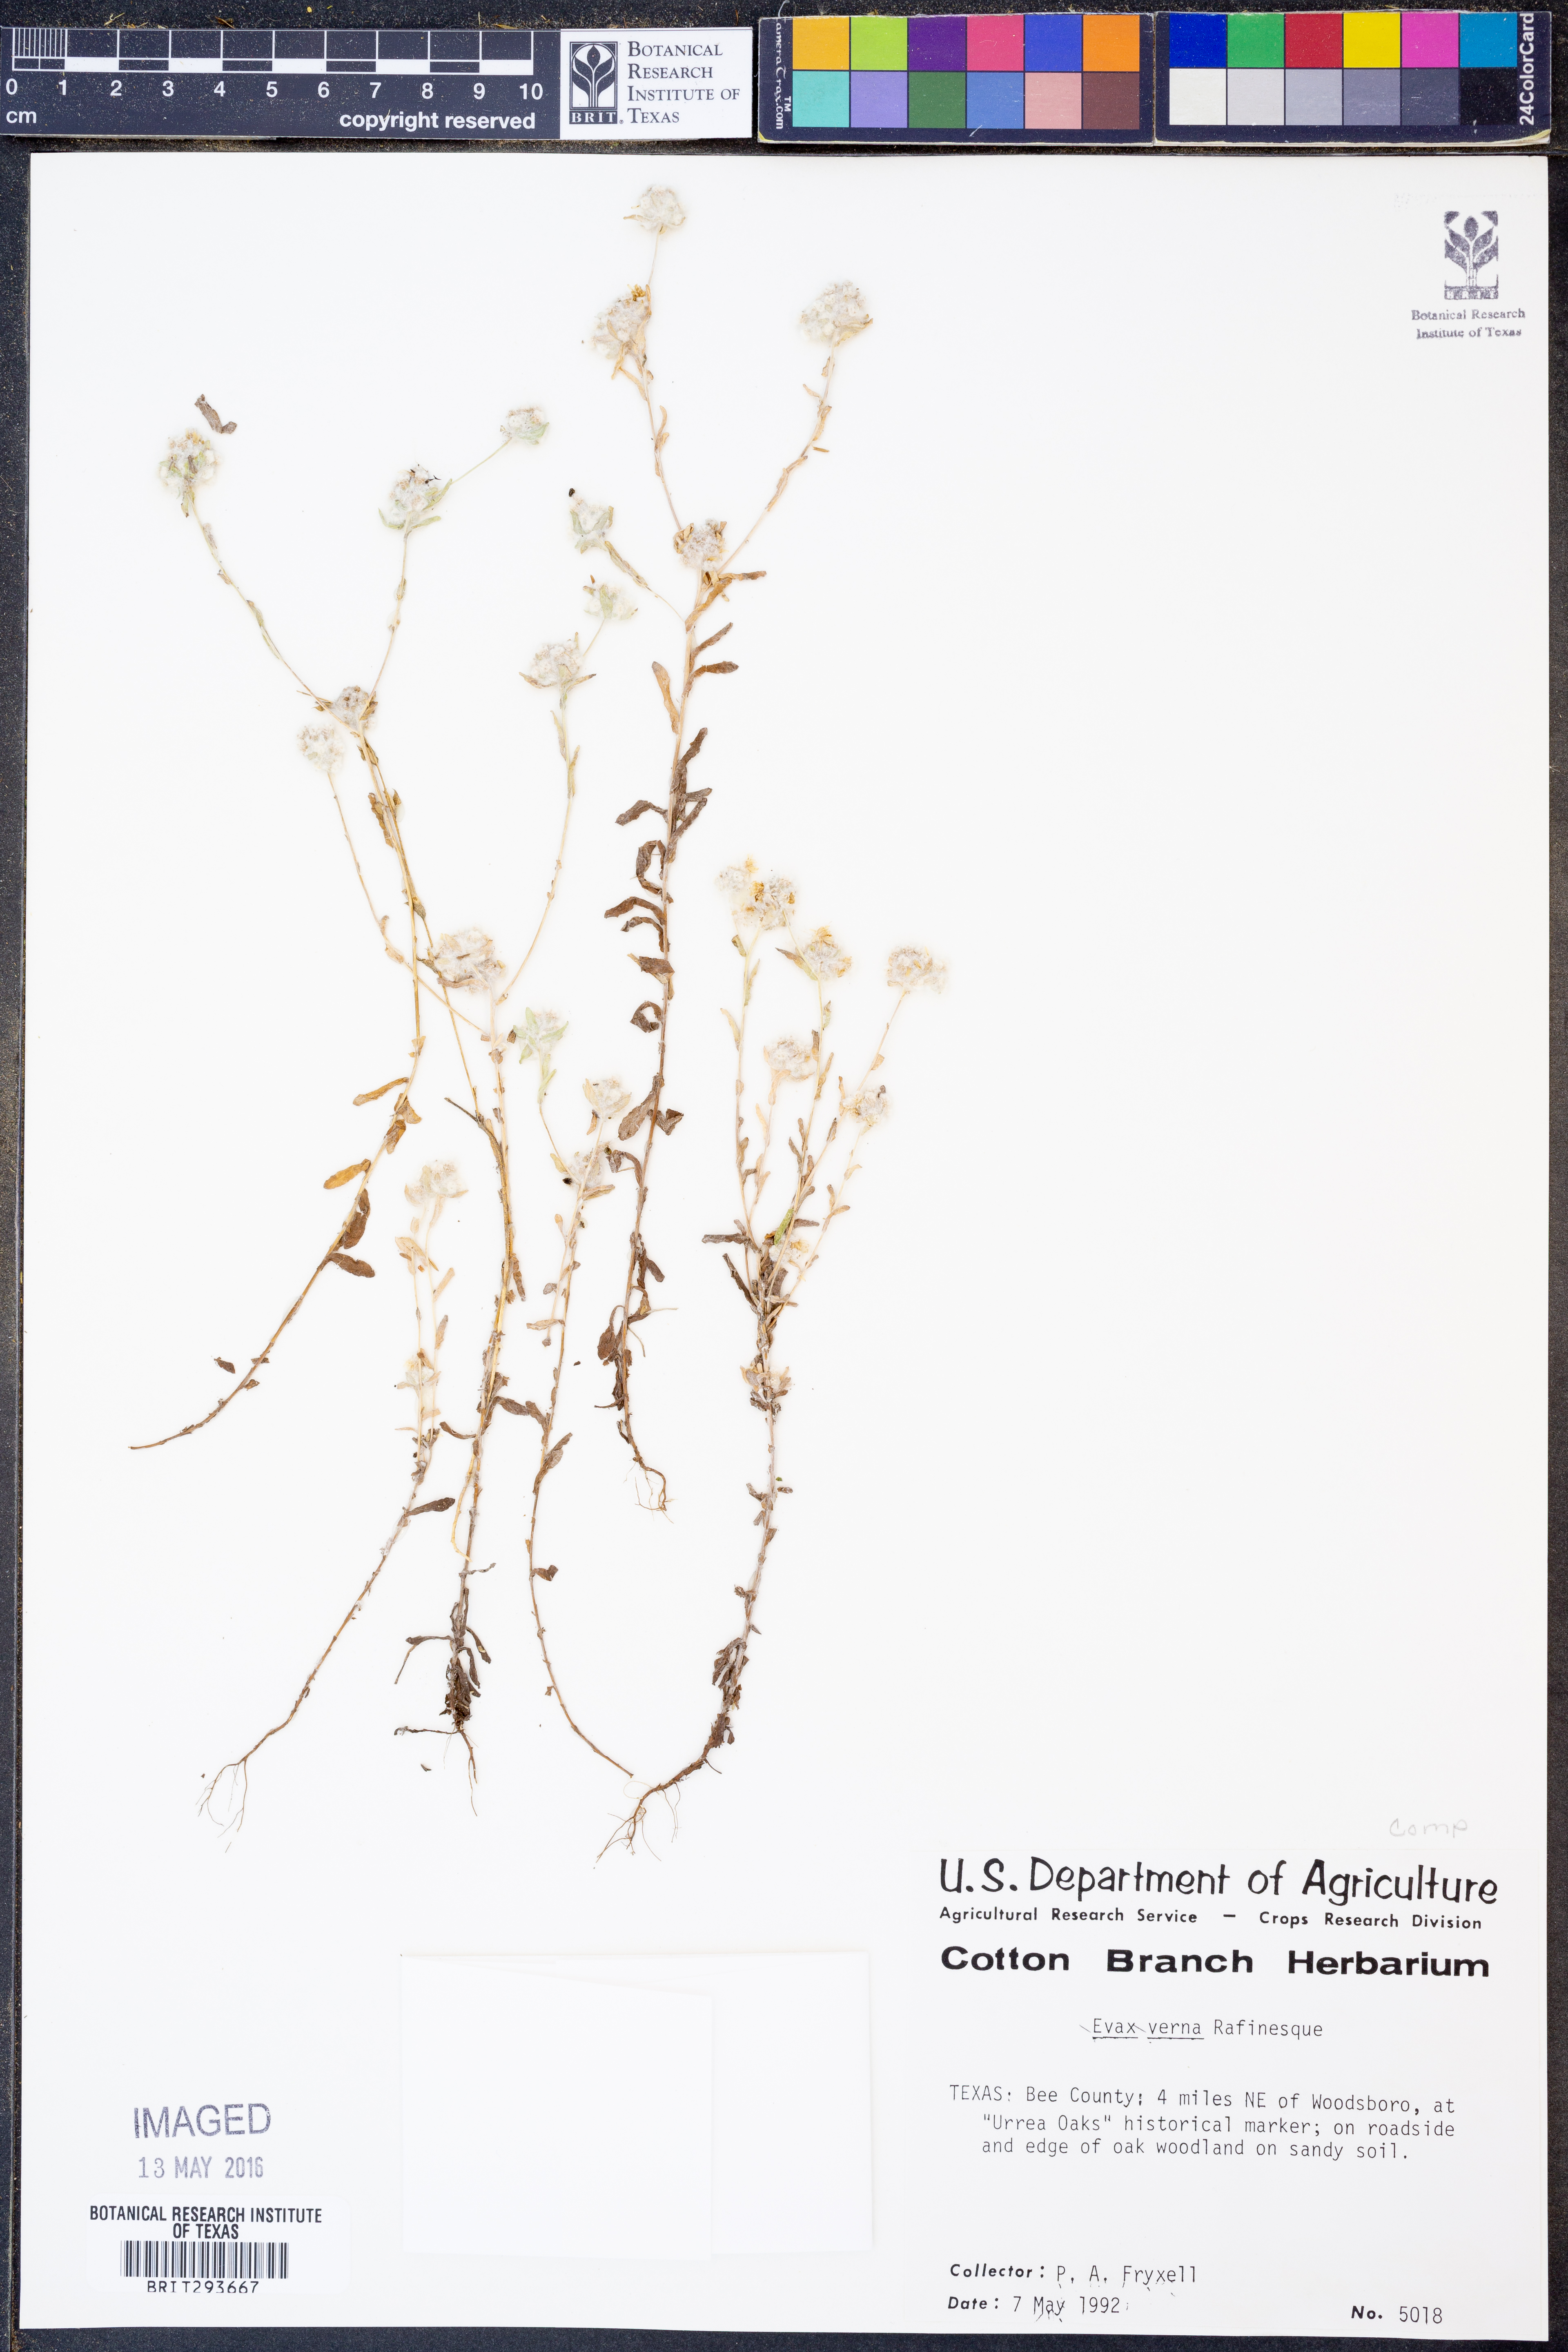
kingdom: Plantae
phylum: Tracheophyta
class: Magnoliopsida
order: Asterales
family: Asteraceae
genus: Diaperia
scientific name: Diaperia verna
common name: Many-stem rabbit-tobacco
